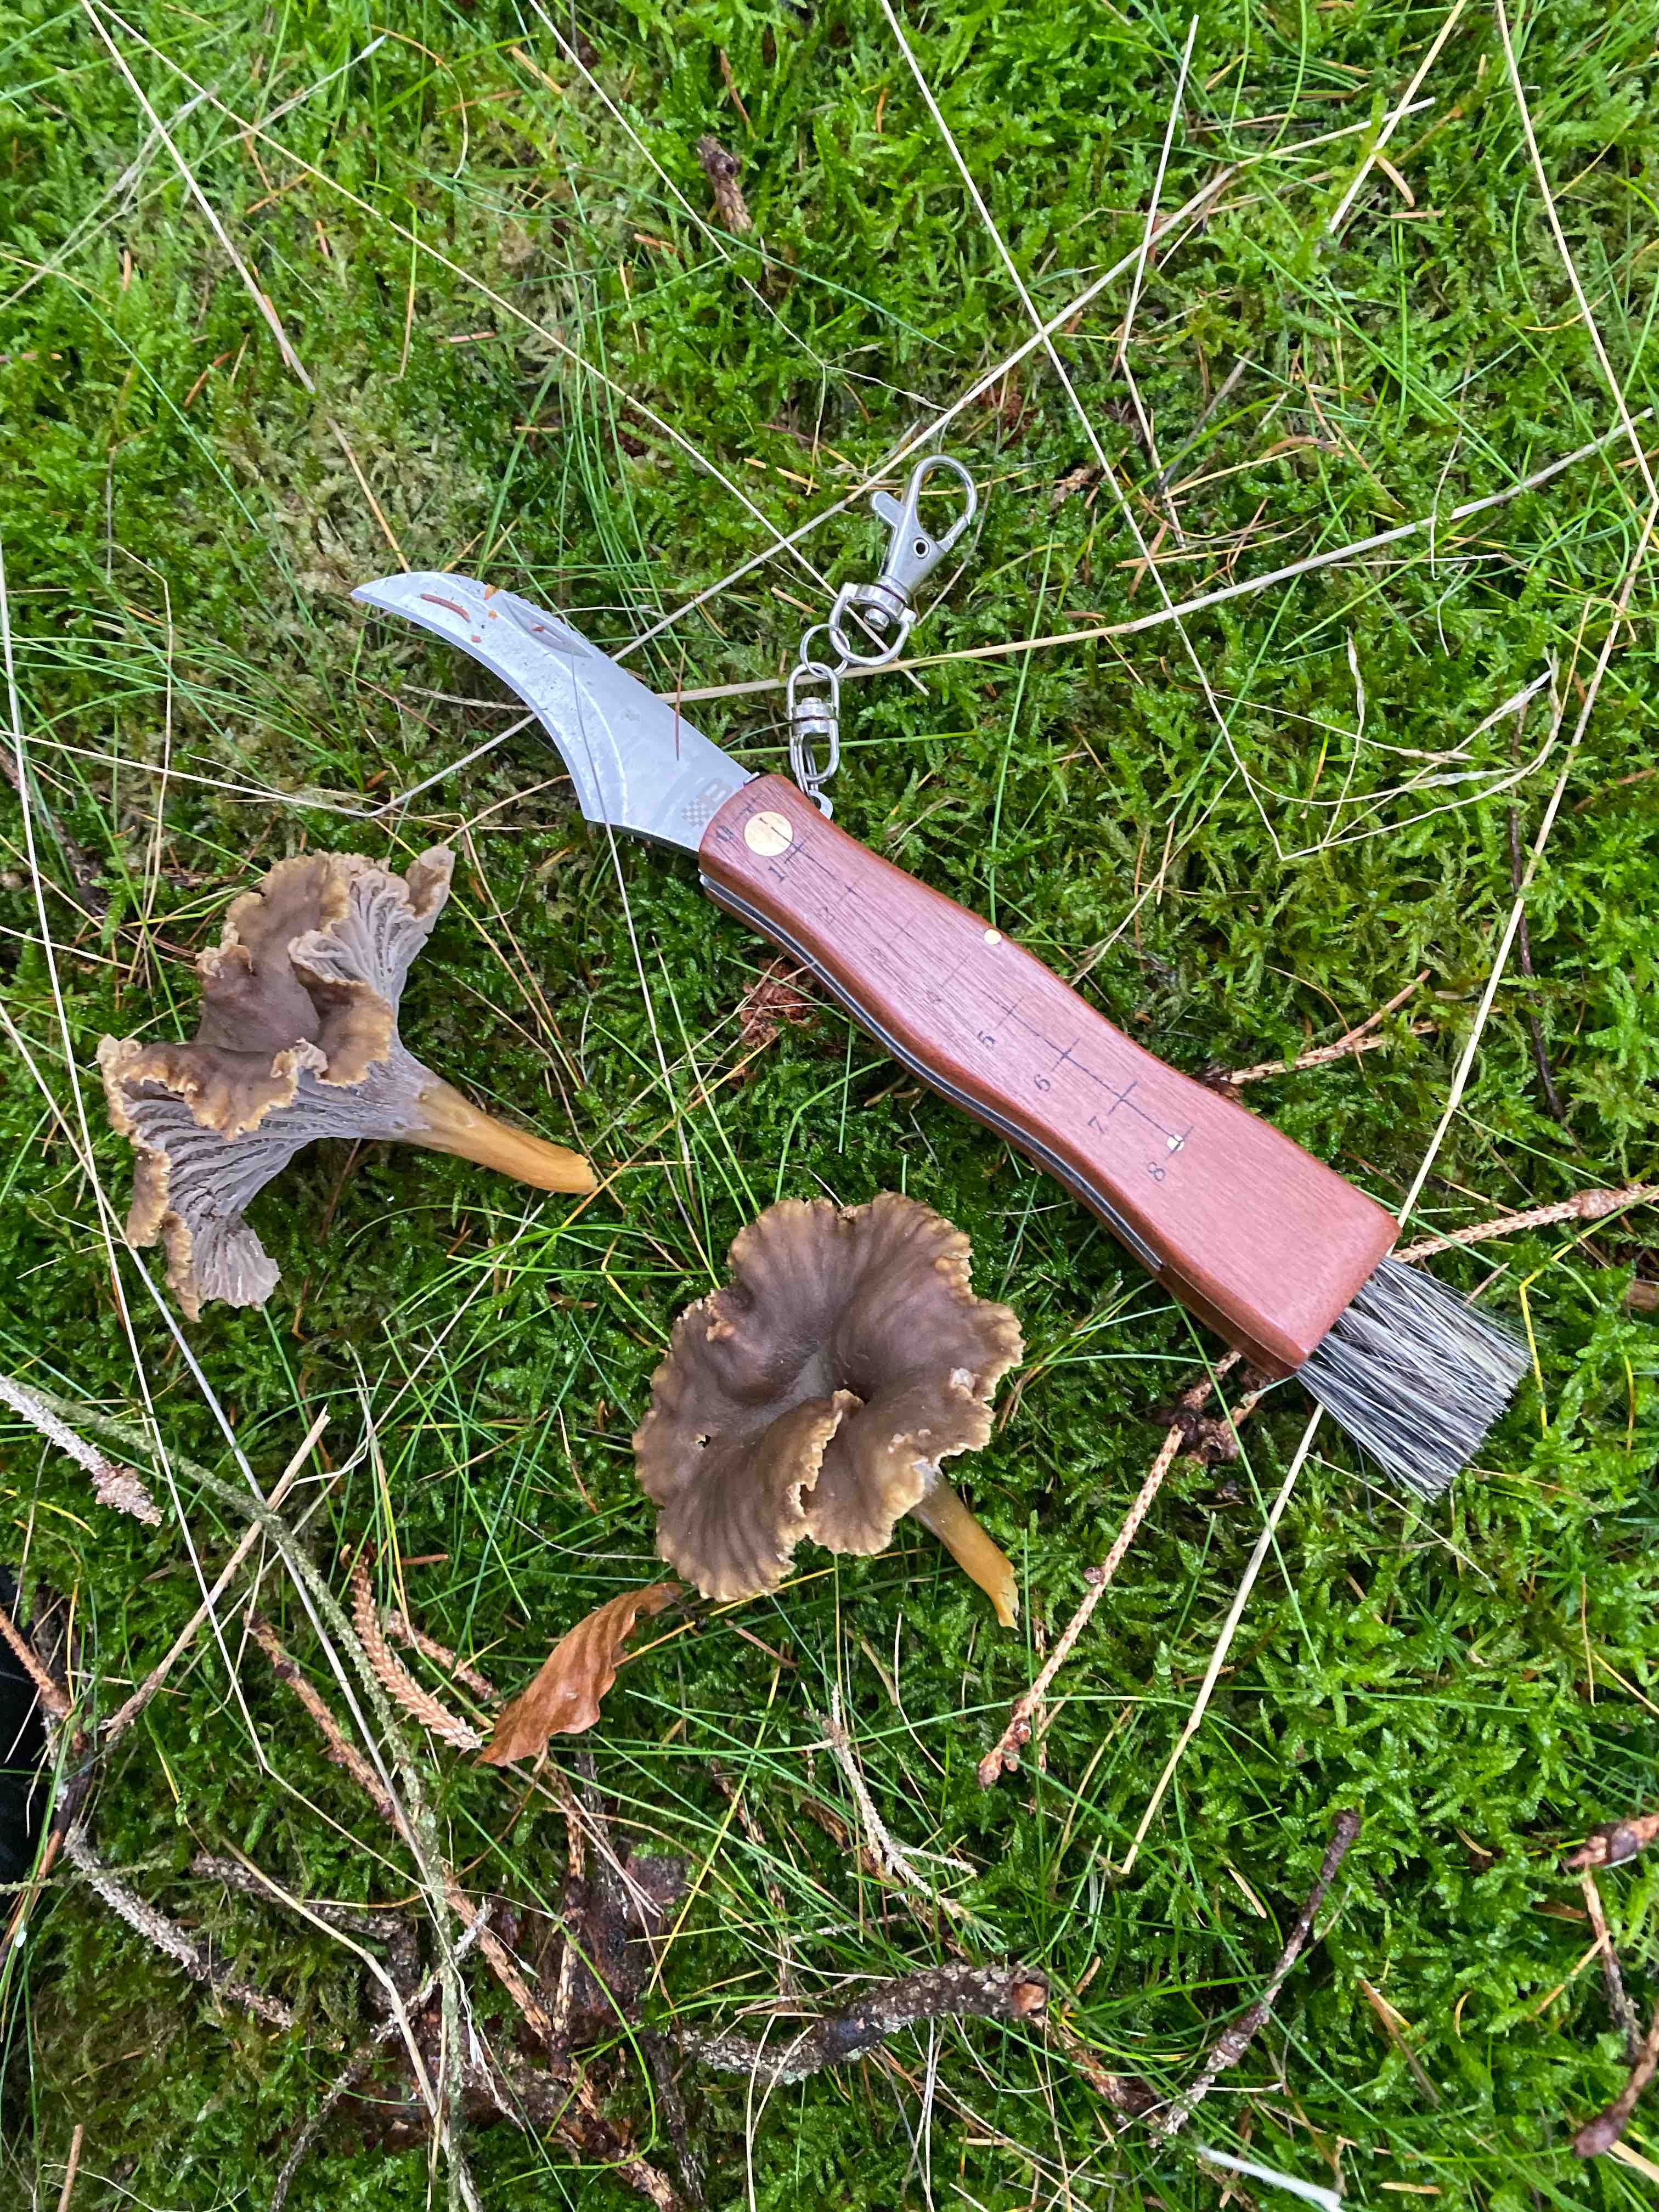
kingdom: Fungi
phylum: Basidiomycota
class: Agaricomycetes
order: Cantharellales
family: Hydnaceae
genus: Craterellus
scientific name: Craterellus tubaeformis
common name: tragt-kantarel
